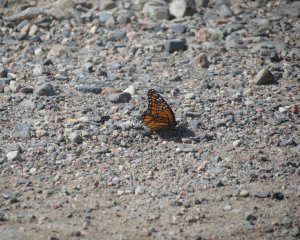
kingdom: Animalia
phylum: Arthropoda
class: Insecta
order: Lepidoptera
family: Nymphalidae
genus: Limenitis
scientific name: Limenitis archippus
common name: Viceroy
